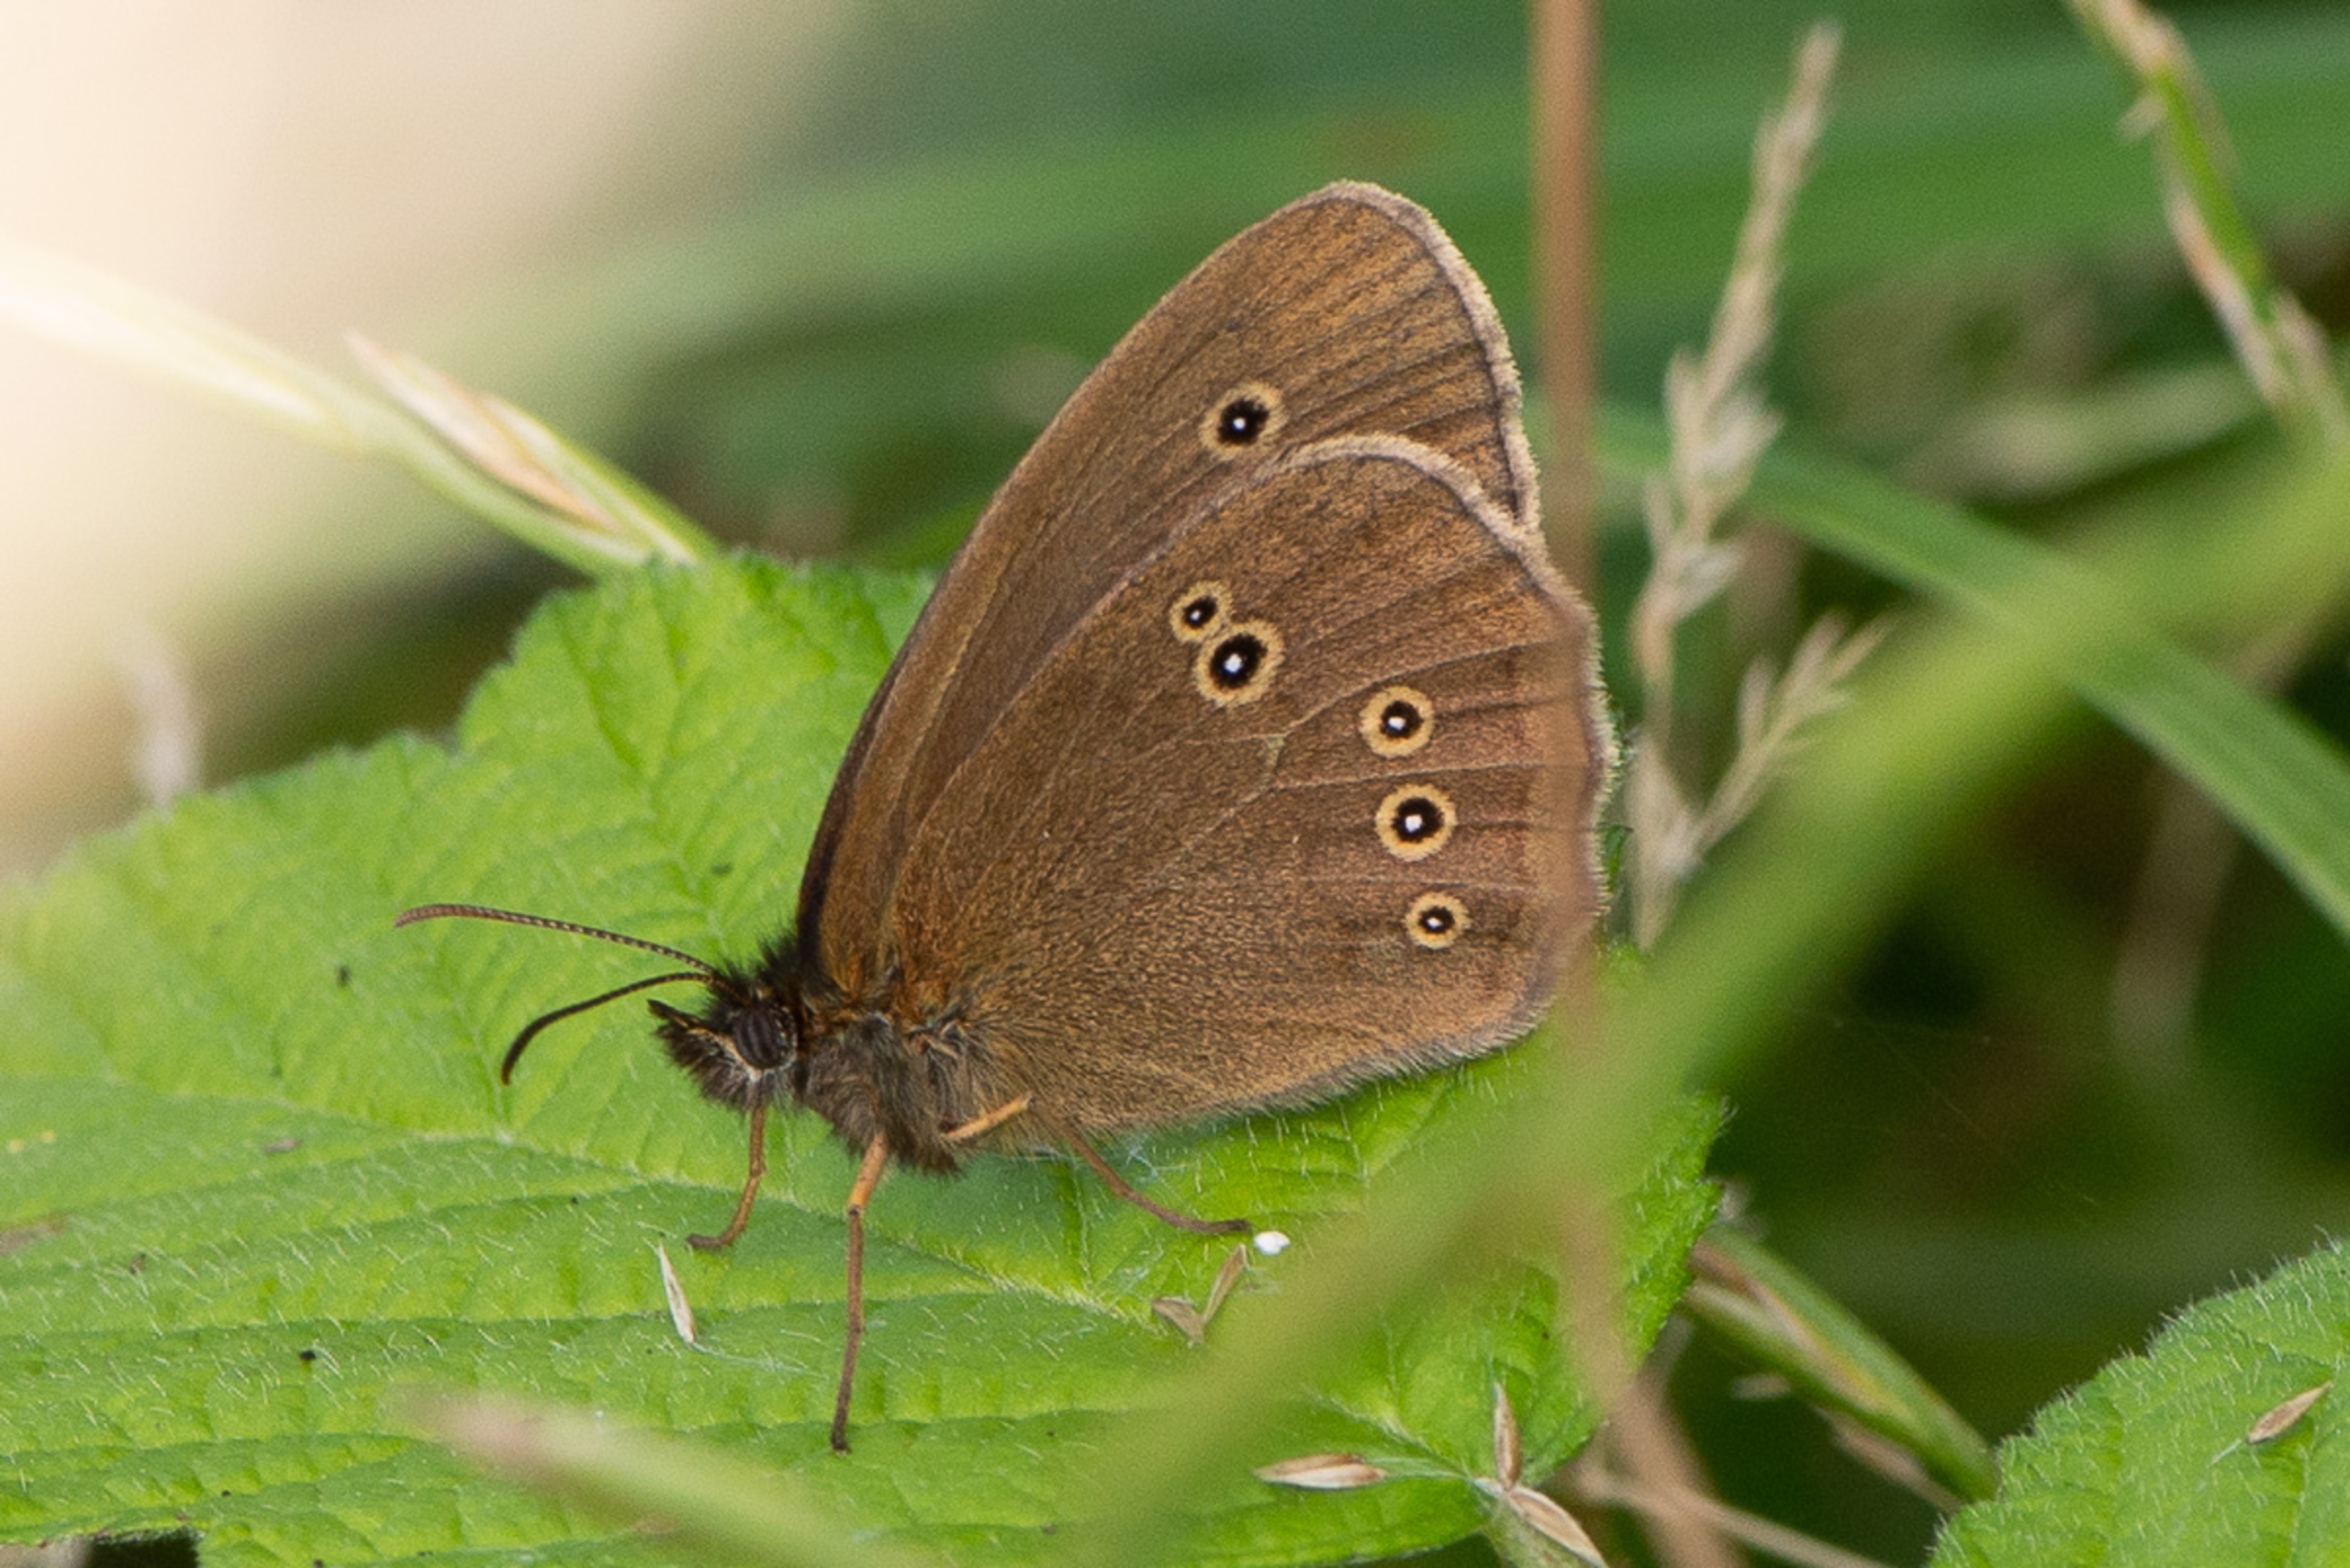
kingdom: Animalia
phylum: Arthropoda
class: Insecta
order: Lepidoptera
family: Nymphalidae
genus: Aphantopus
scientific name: Aphantopus hyperantus
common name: Engrandøje
